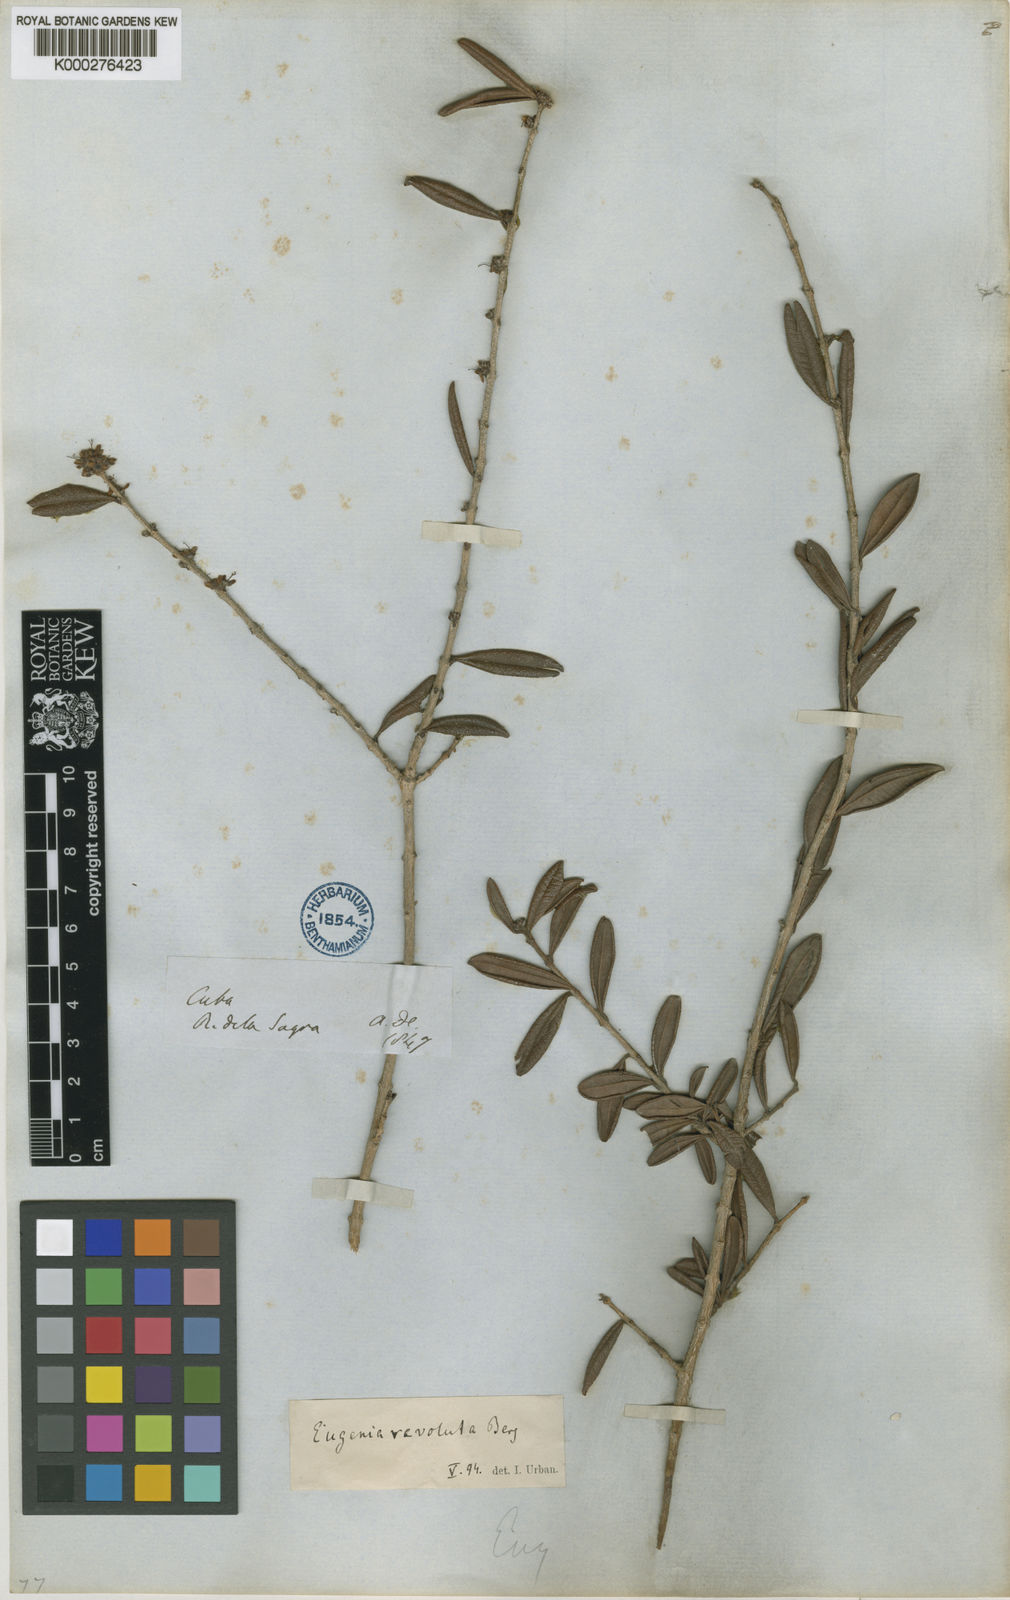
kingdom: Plantae
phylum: Tracheophyta
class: Magnoliopsida
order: Myrtales
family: Myrtaceae
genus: Eugenia
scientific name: Eugenia oxysepala
